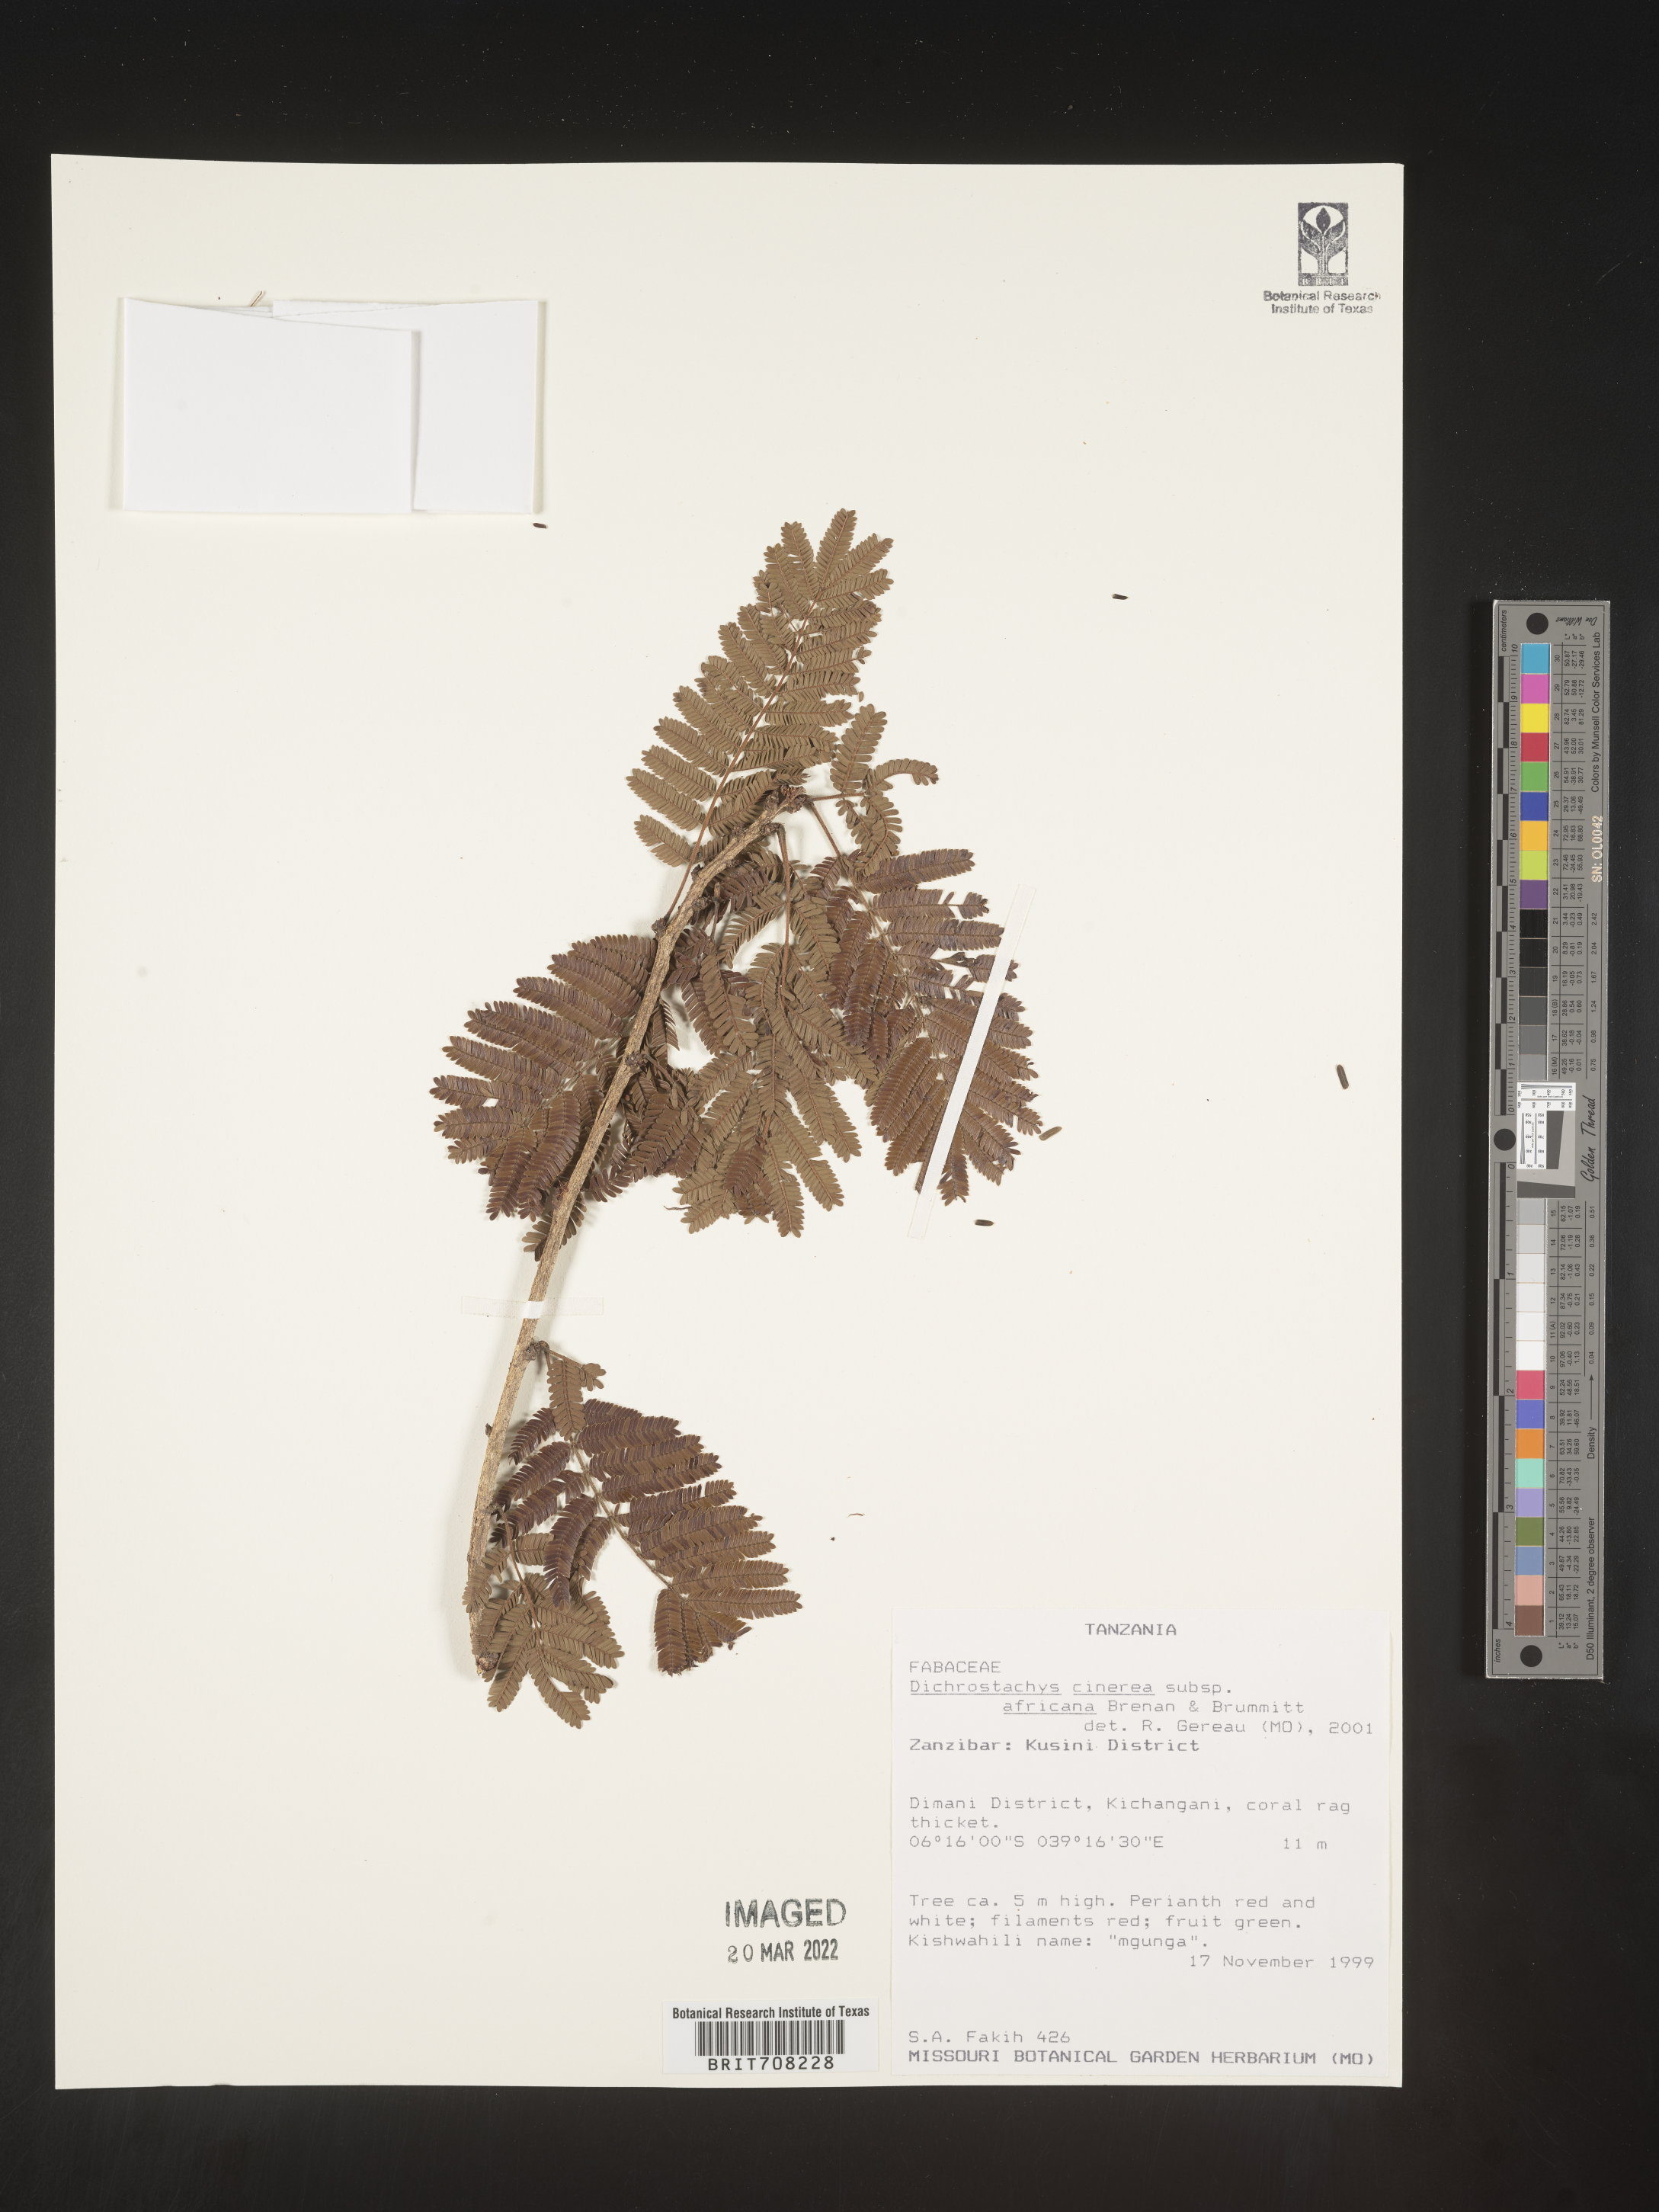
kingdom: Plantae
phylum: Tracheophyta
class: Magnoliopsida
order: Fabales
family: Fabaceae
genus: Dichrostachys
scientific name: Dichrostachys
